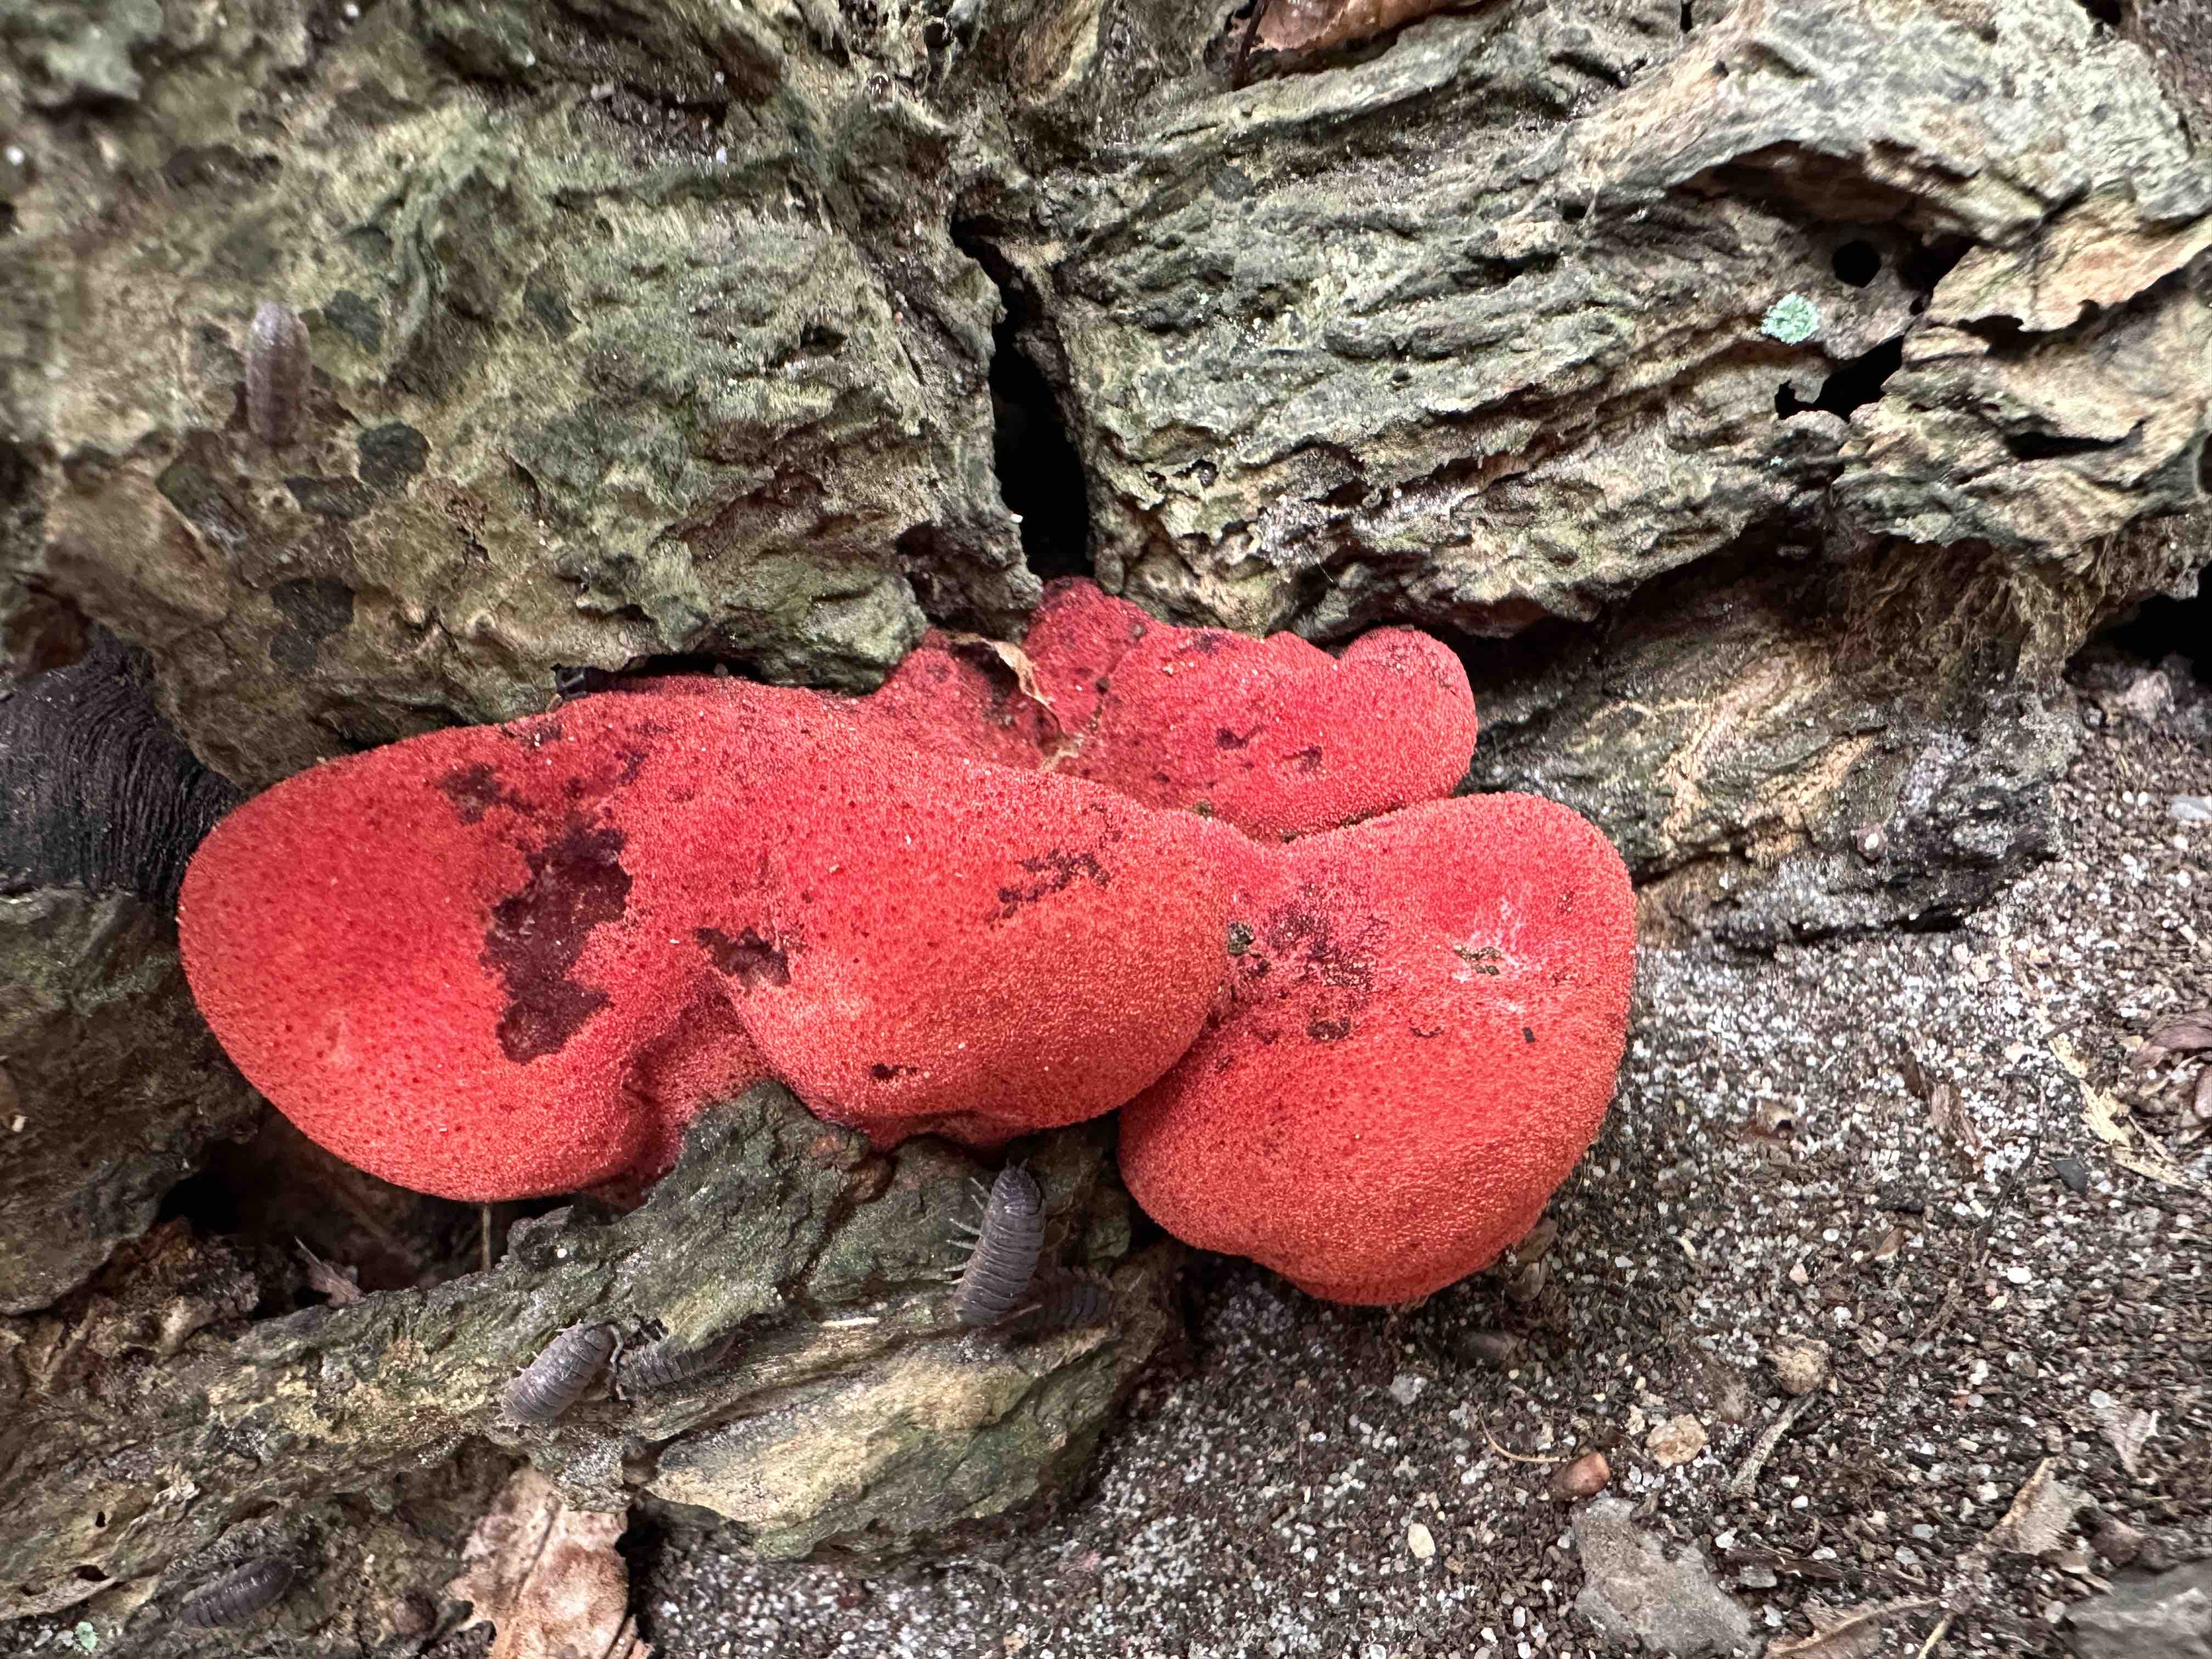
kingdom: Fungi
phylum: Basidiomycota
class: Agaricomycetes
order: Agaricales
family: Fistulinaceae
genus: Fistulina
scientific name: Fistulina hepatica
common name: oksetunge
